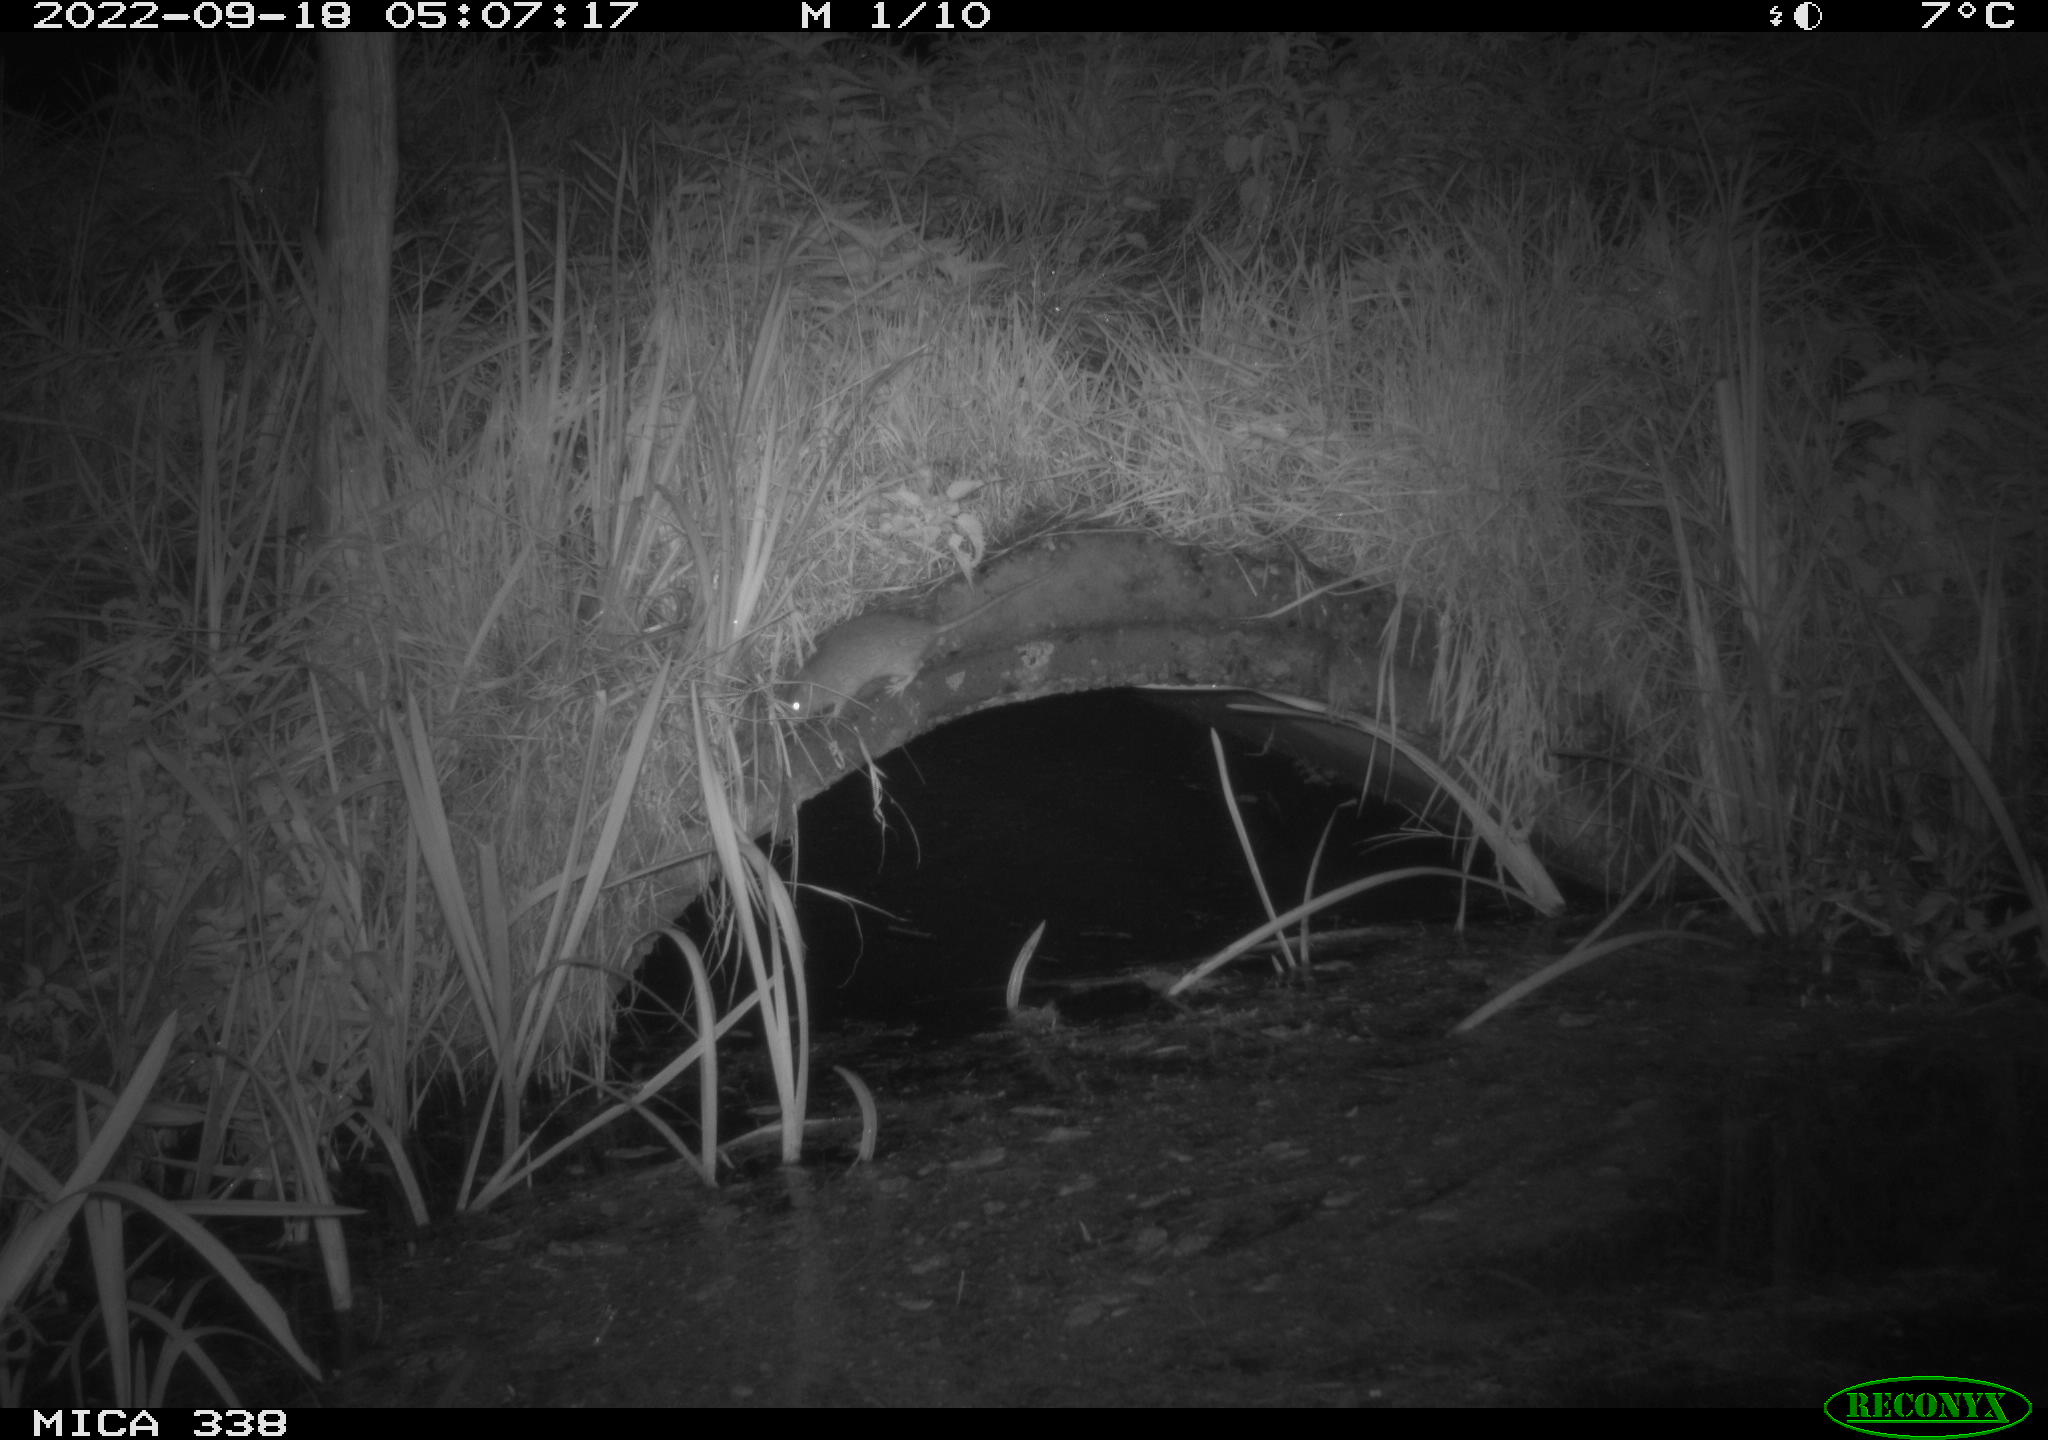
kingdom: Animalia
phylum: Chordata
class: Mammalia
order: Rodentia
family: Muridae
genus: Rattus
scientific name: Rattus norvegicus
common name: Brown rat
